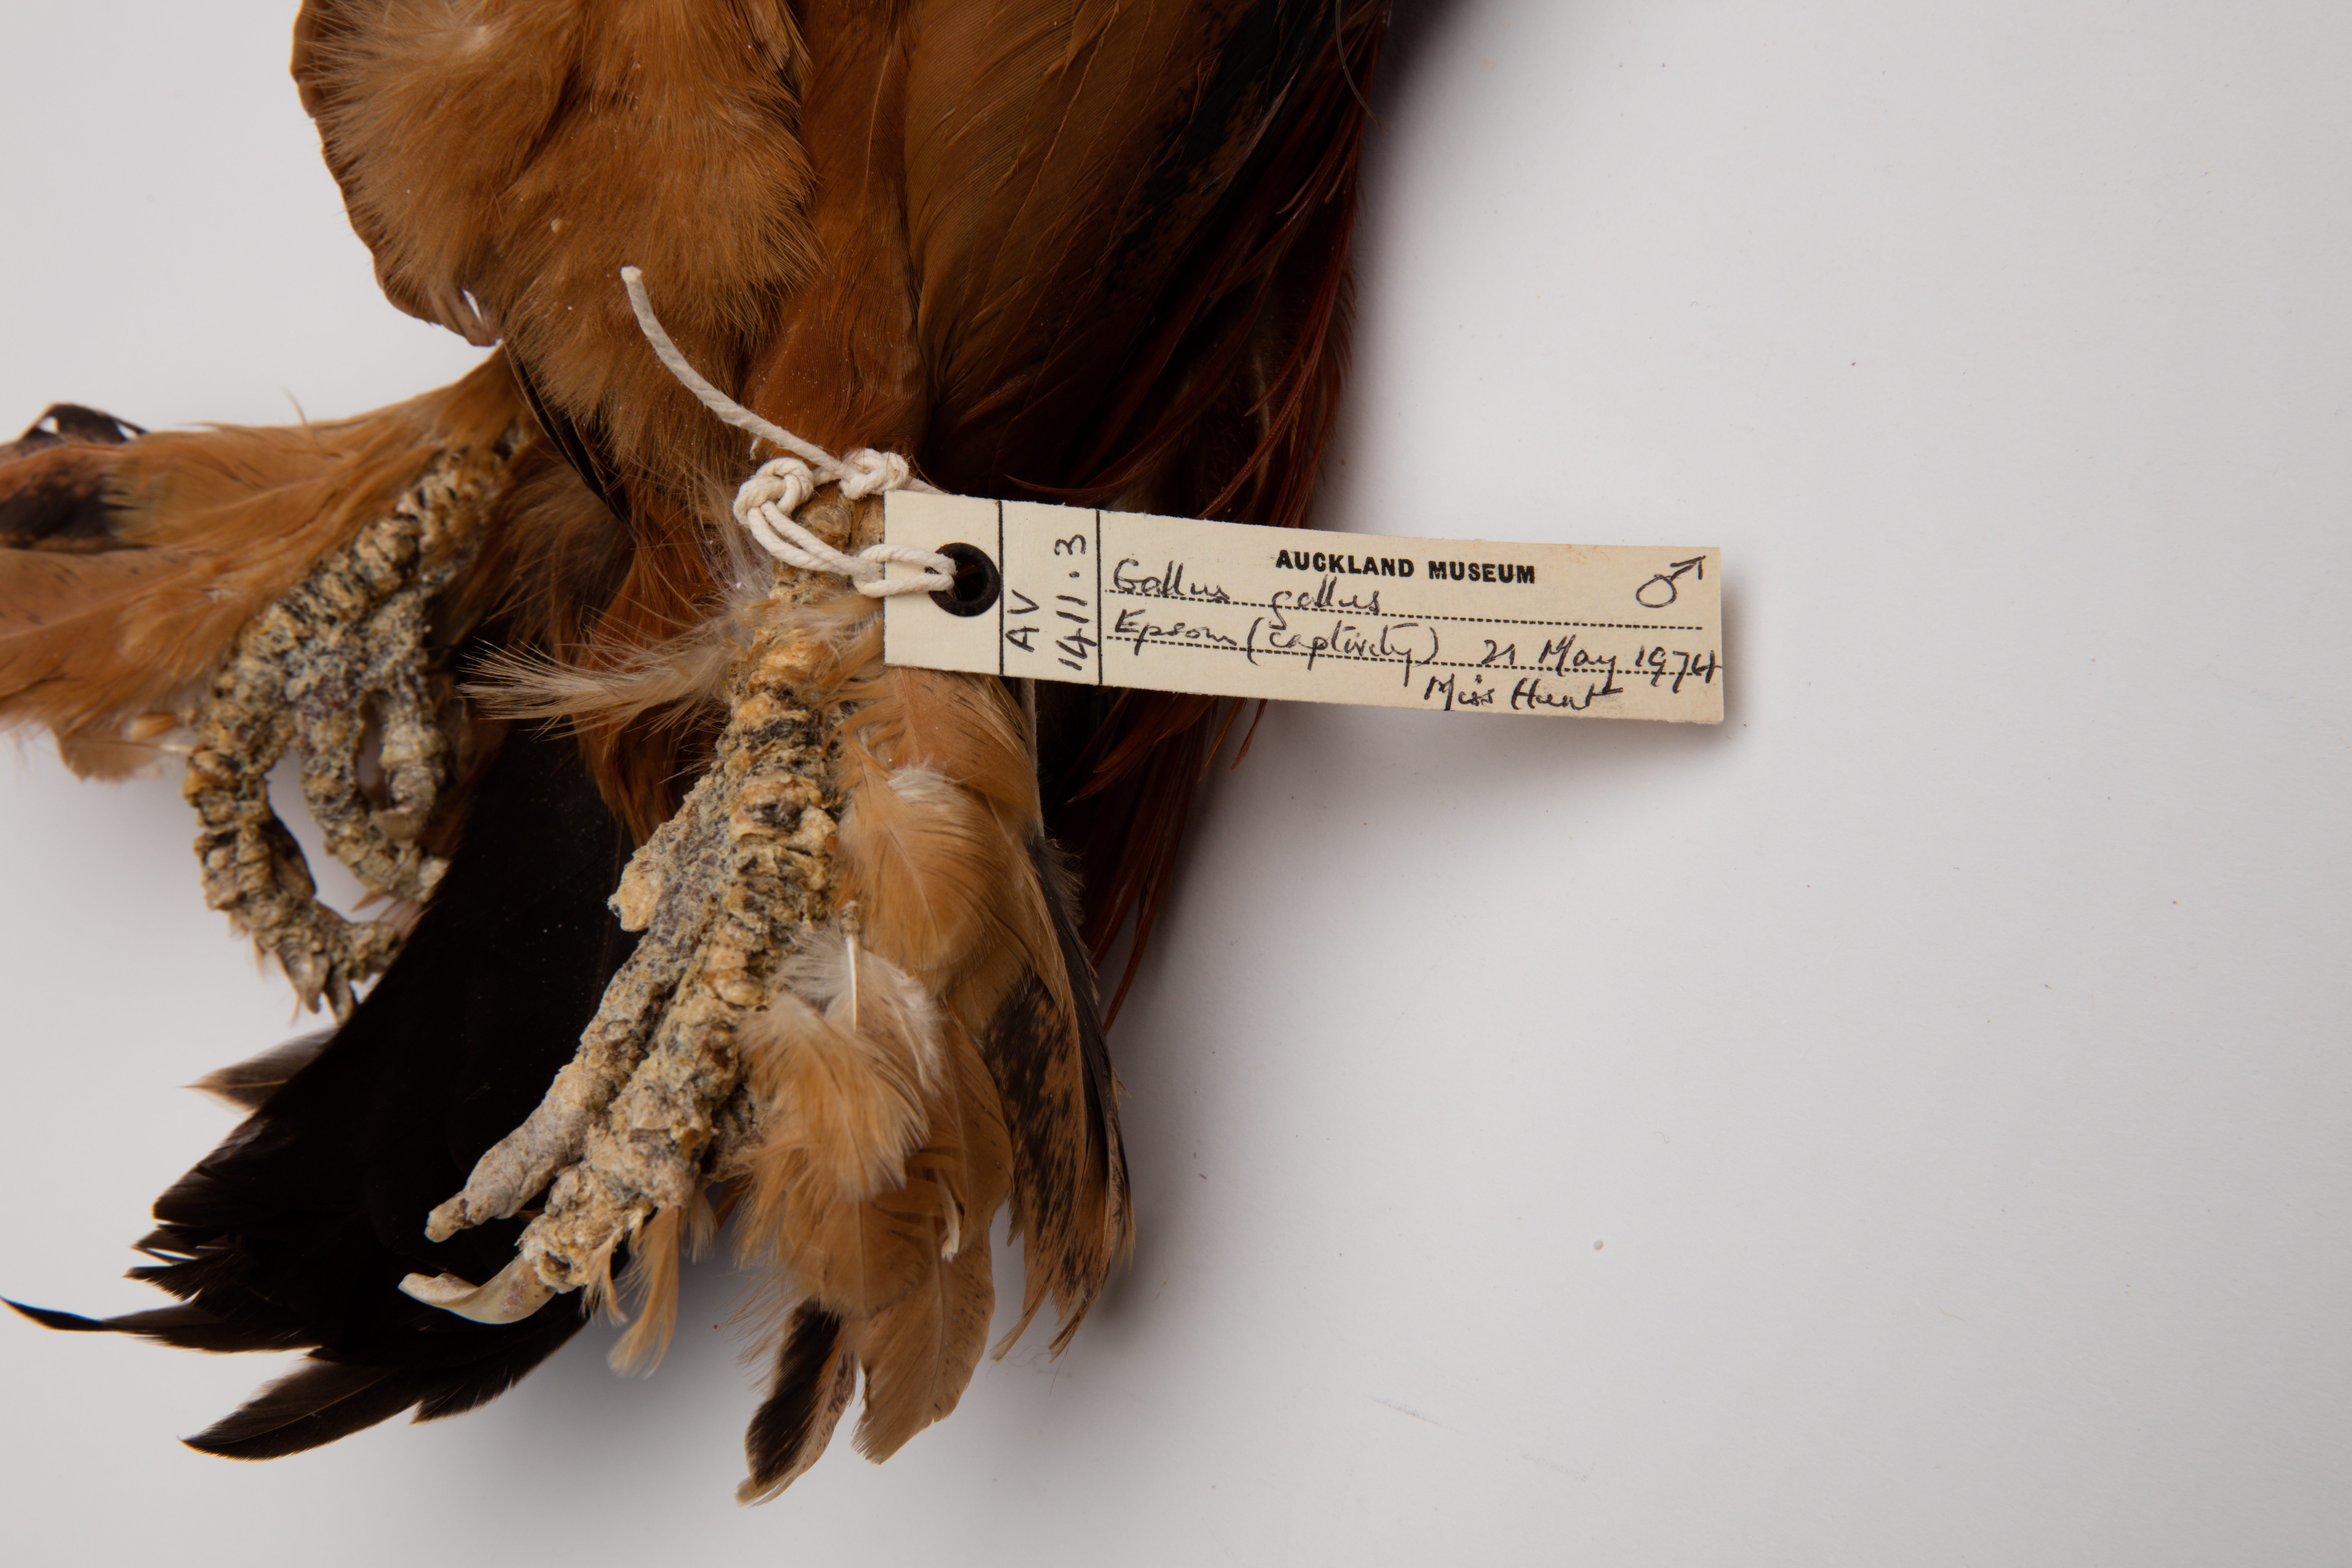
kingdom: Animalia
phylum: Chordata
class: Aves
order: Galliformes
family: Phasianidae
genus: Gallus
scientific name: Gallus gallus
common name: Red junglefowl
